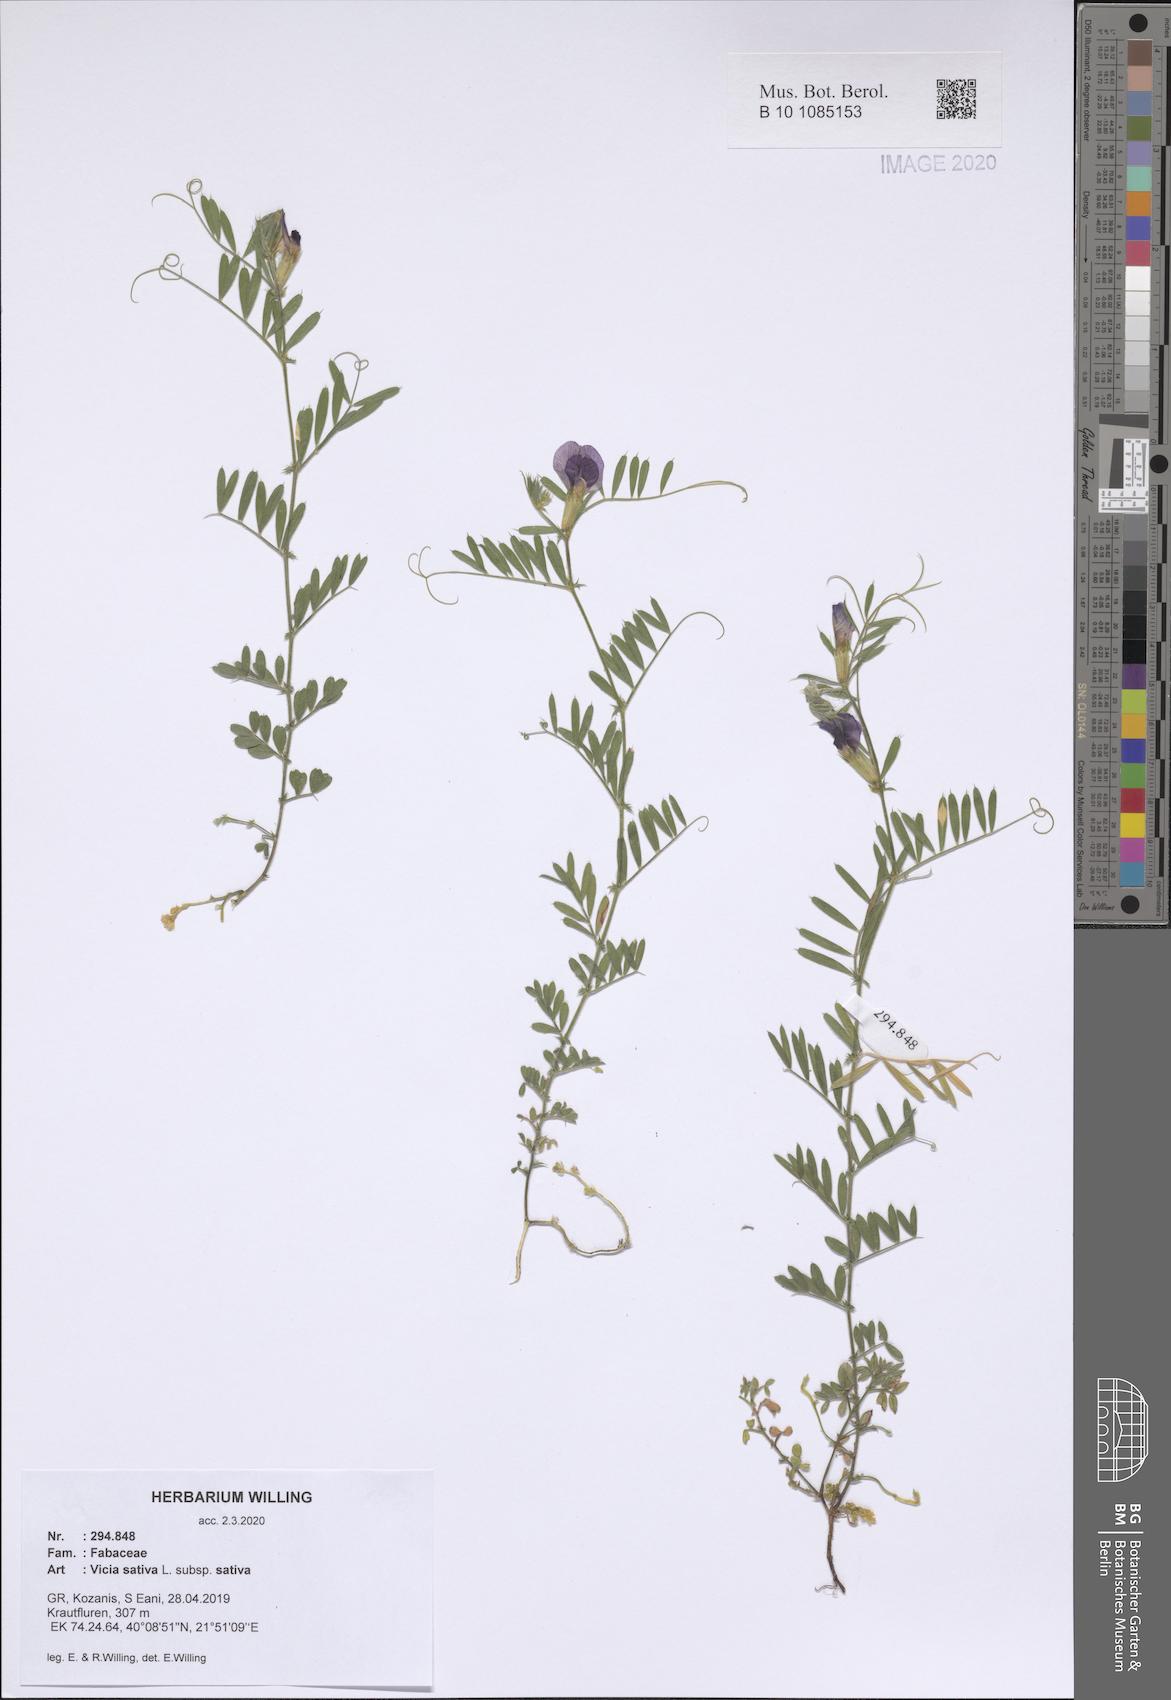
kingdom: Plantae
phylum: Tracheophyta
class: Magnoliopsida
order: Fabales
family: Fabaceae
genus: Vicia
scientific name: Vicia sativa
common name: Garden vetch
